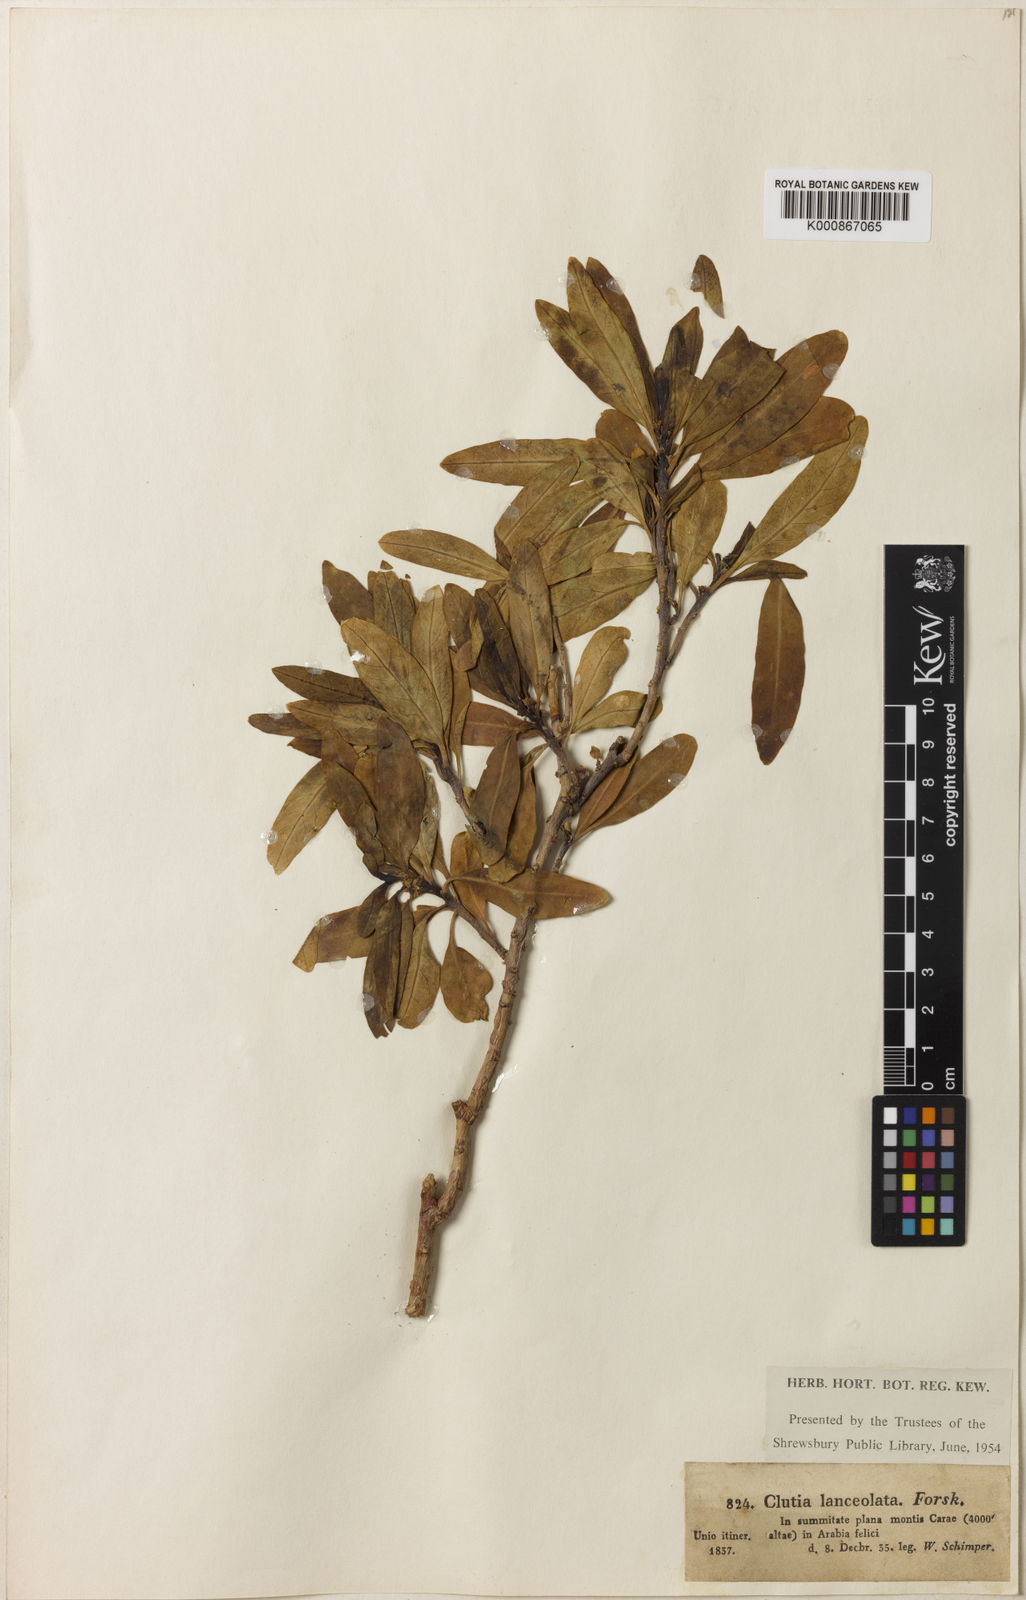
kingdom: Plantae
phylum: Tracheophyta
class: Magnoliopsida
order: Malpighiales
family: Peraceae
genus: Clutia
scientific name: Clutia lanceolata
